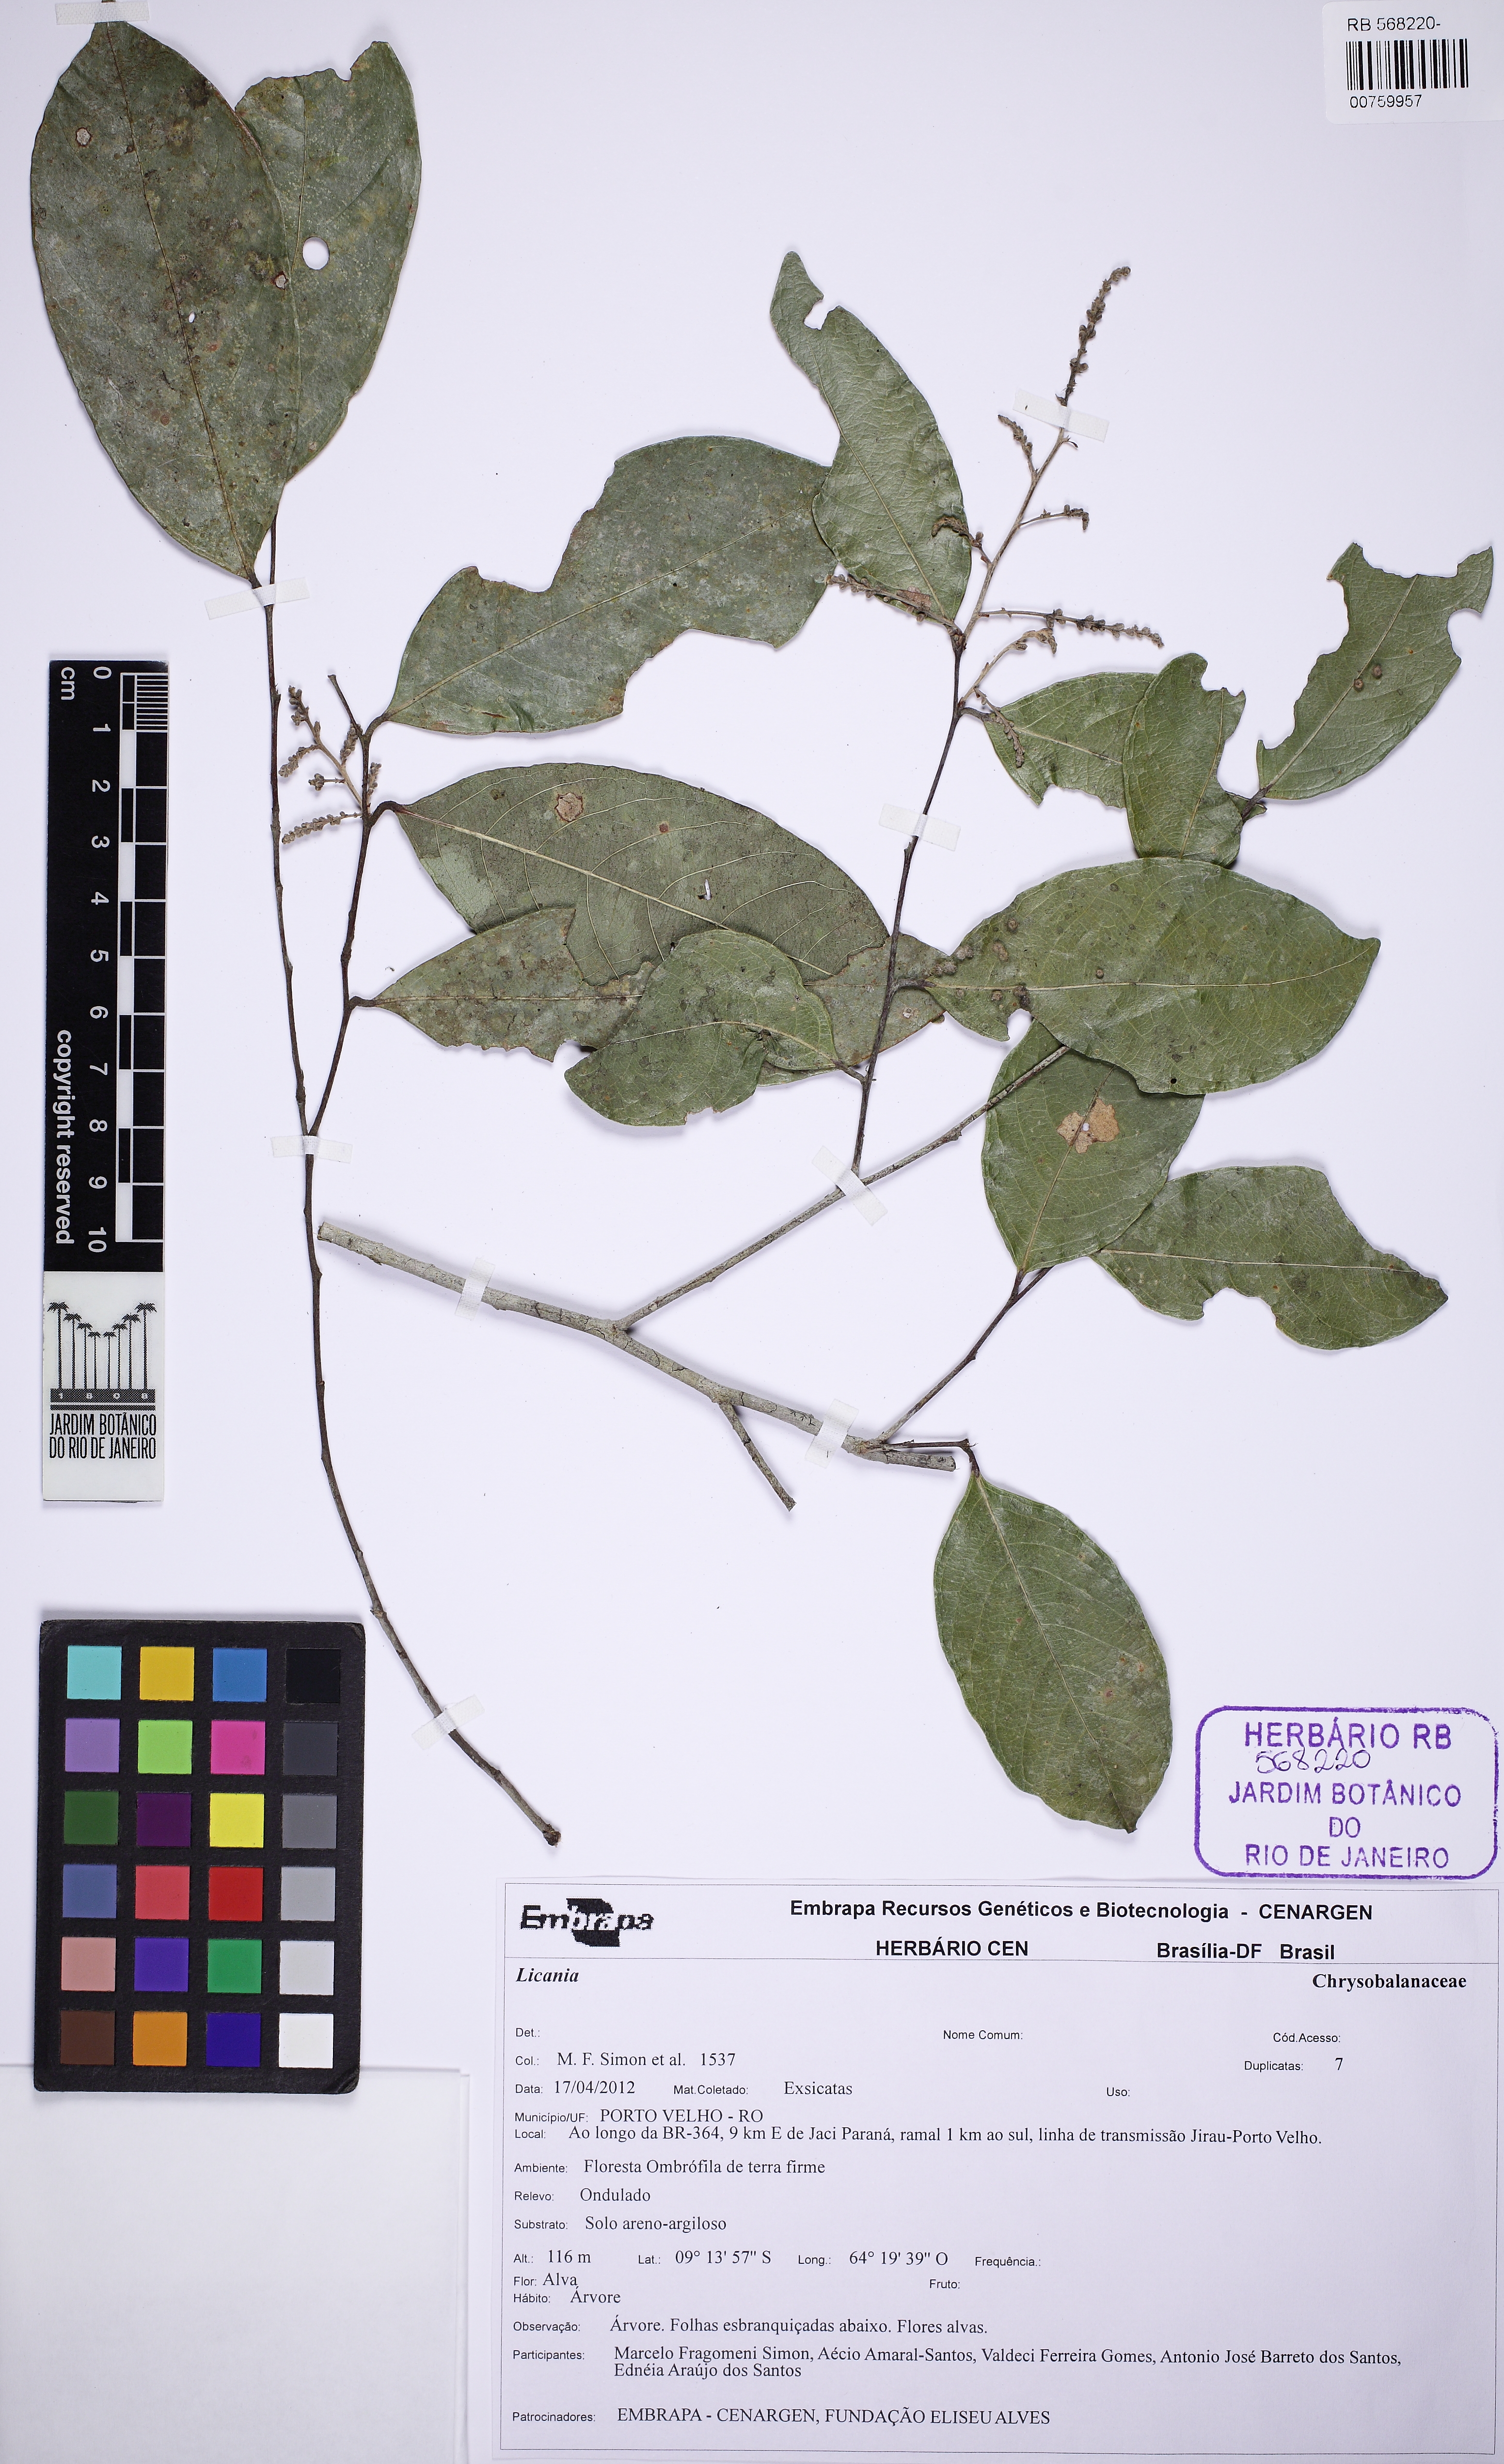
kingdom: Plantae
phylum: Tracheophyta
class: Magnoliopsida
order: Malpighiales
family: Chrysobalanaceae
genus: Licania
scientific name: Licania
